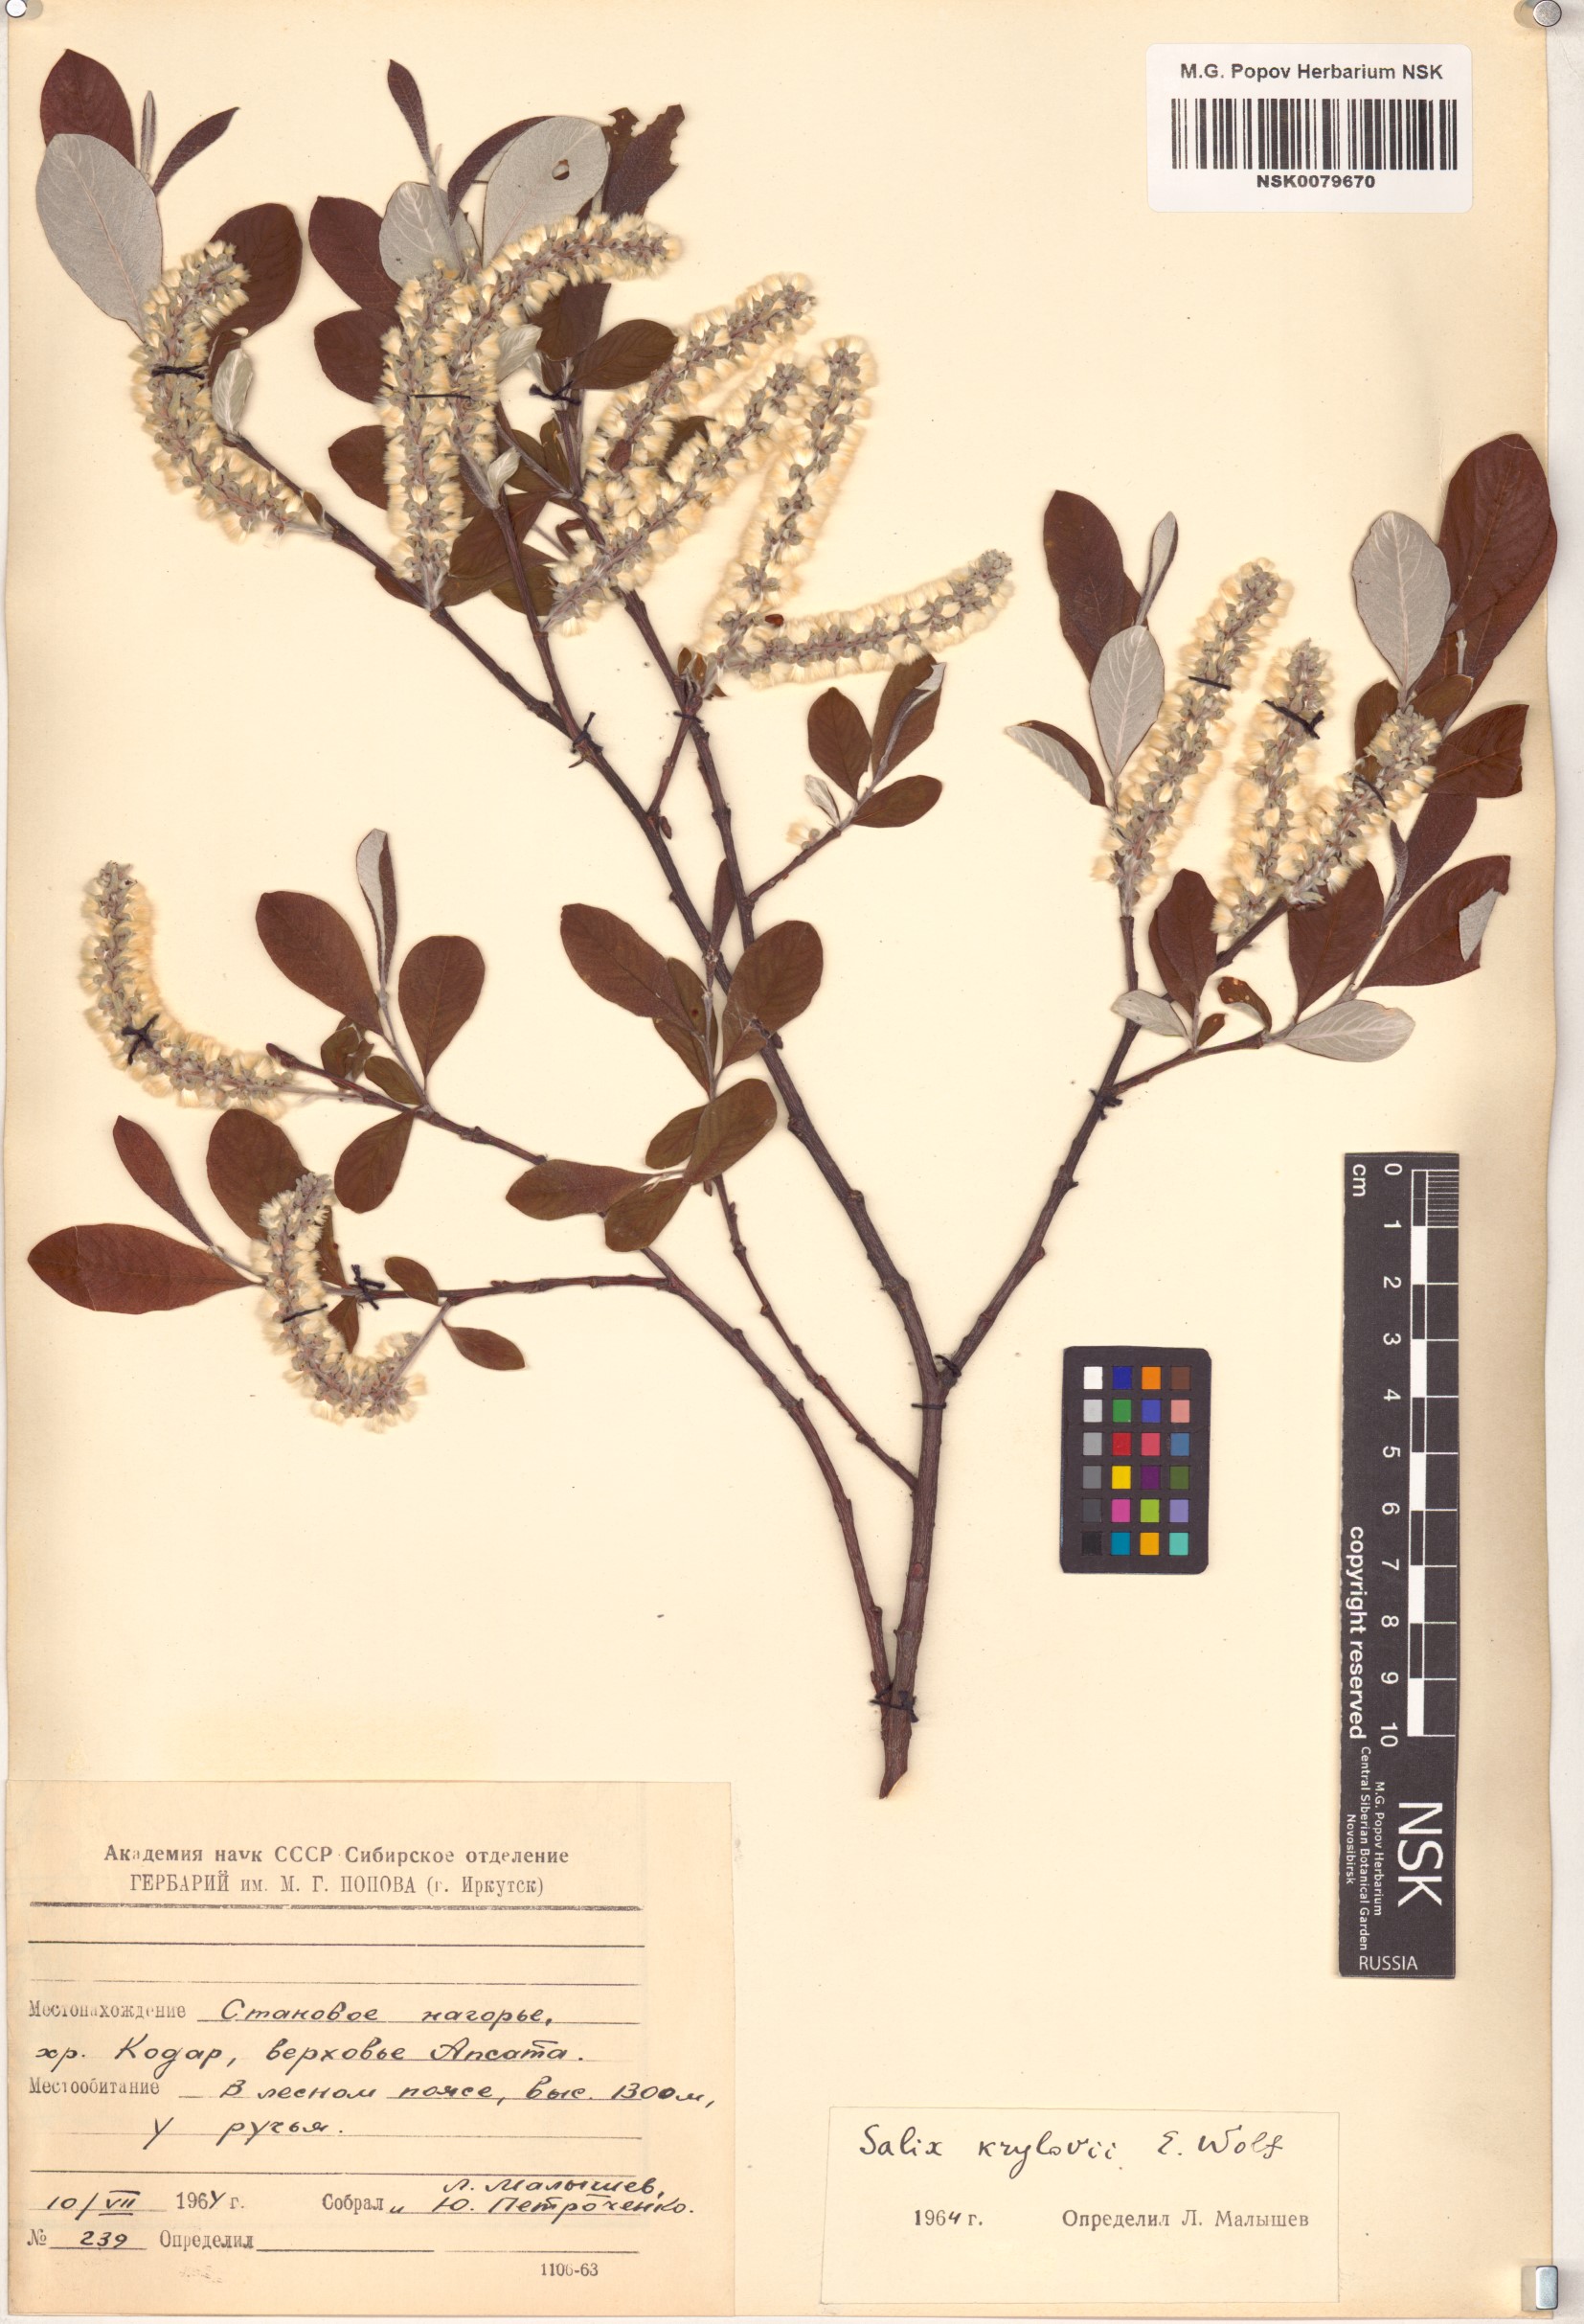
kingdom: Plantae
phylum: Tracheophyta
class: Magnoliopsida
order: Malpighiales
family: Salicaceae
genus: Salix
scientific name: Salix krylovii
